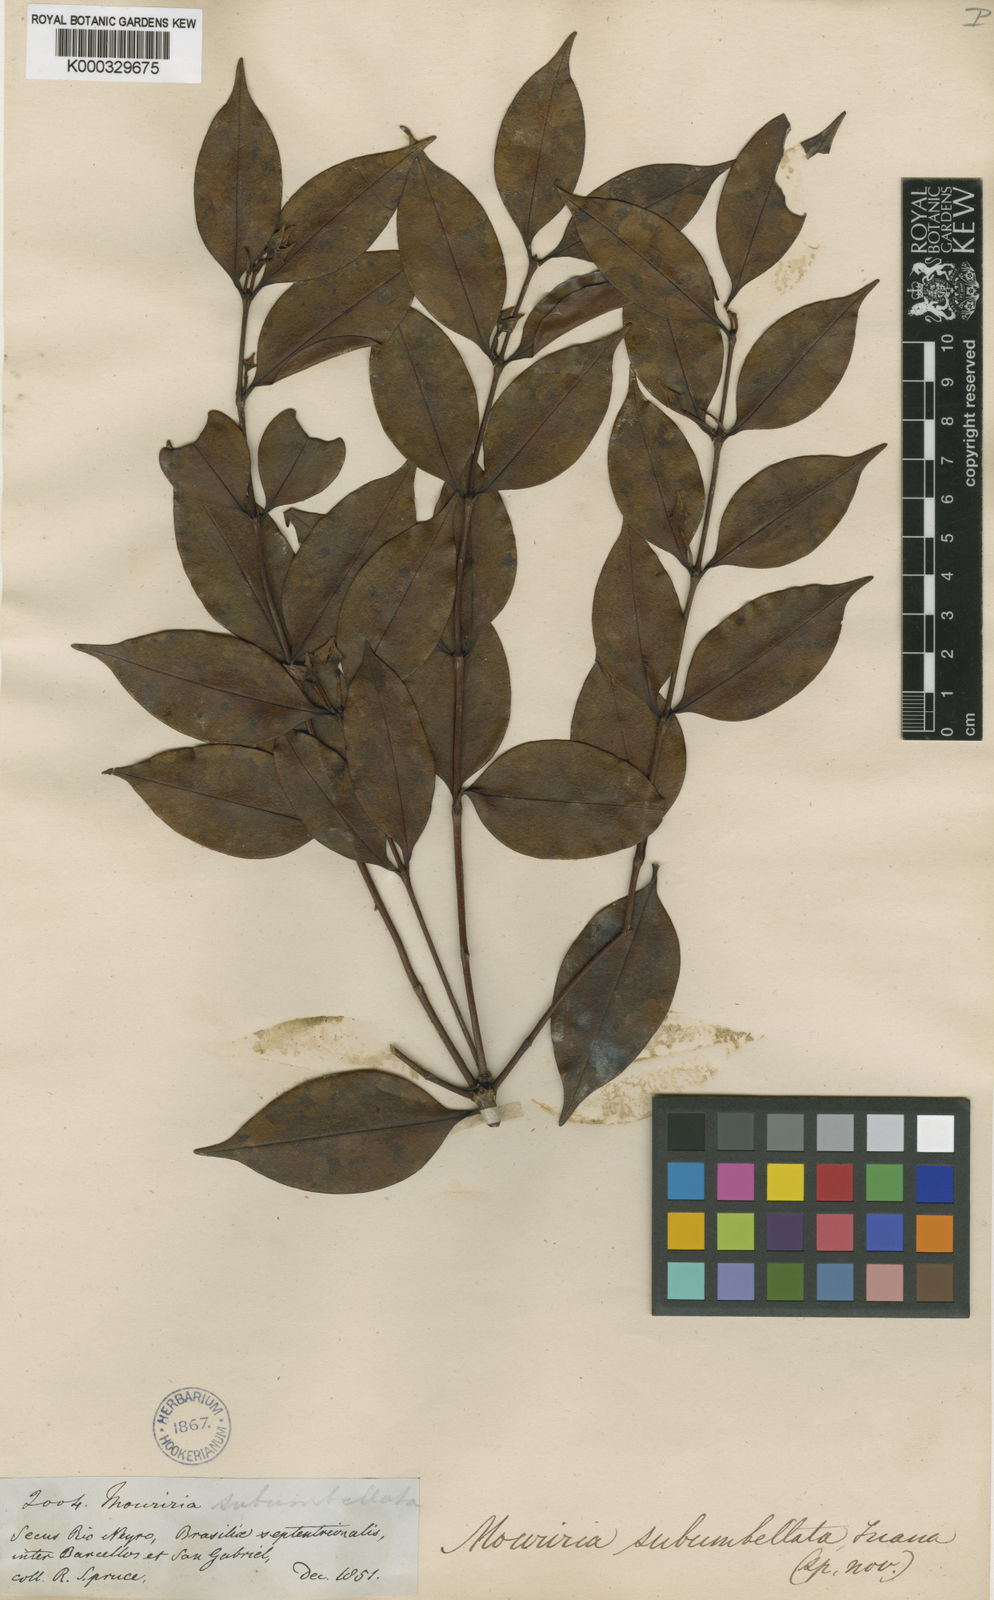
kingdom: Plantae
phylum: Tracheophyta
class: Magnoliopsida
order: Myrtales
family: Melastomataceae
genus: Mouriri
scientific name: Mouriri subumbellata
